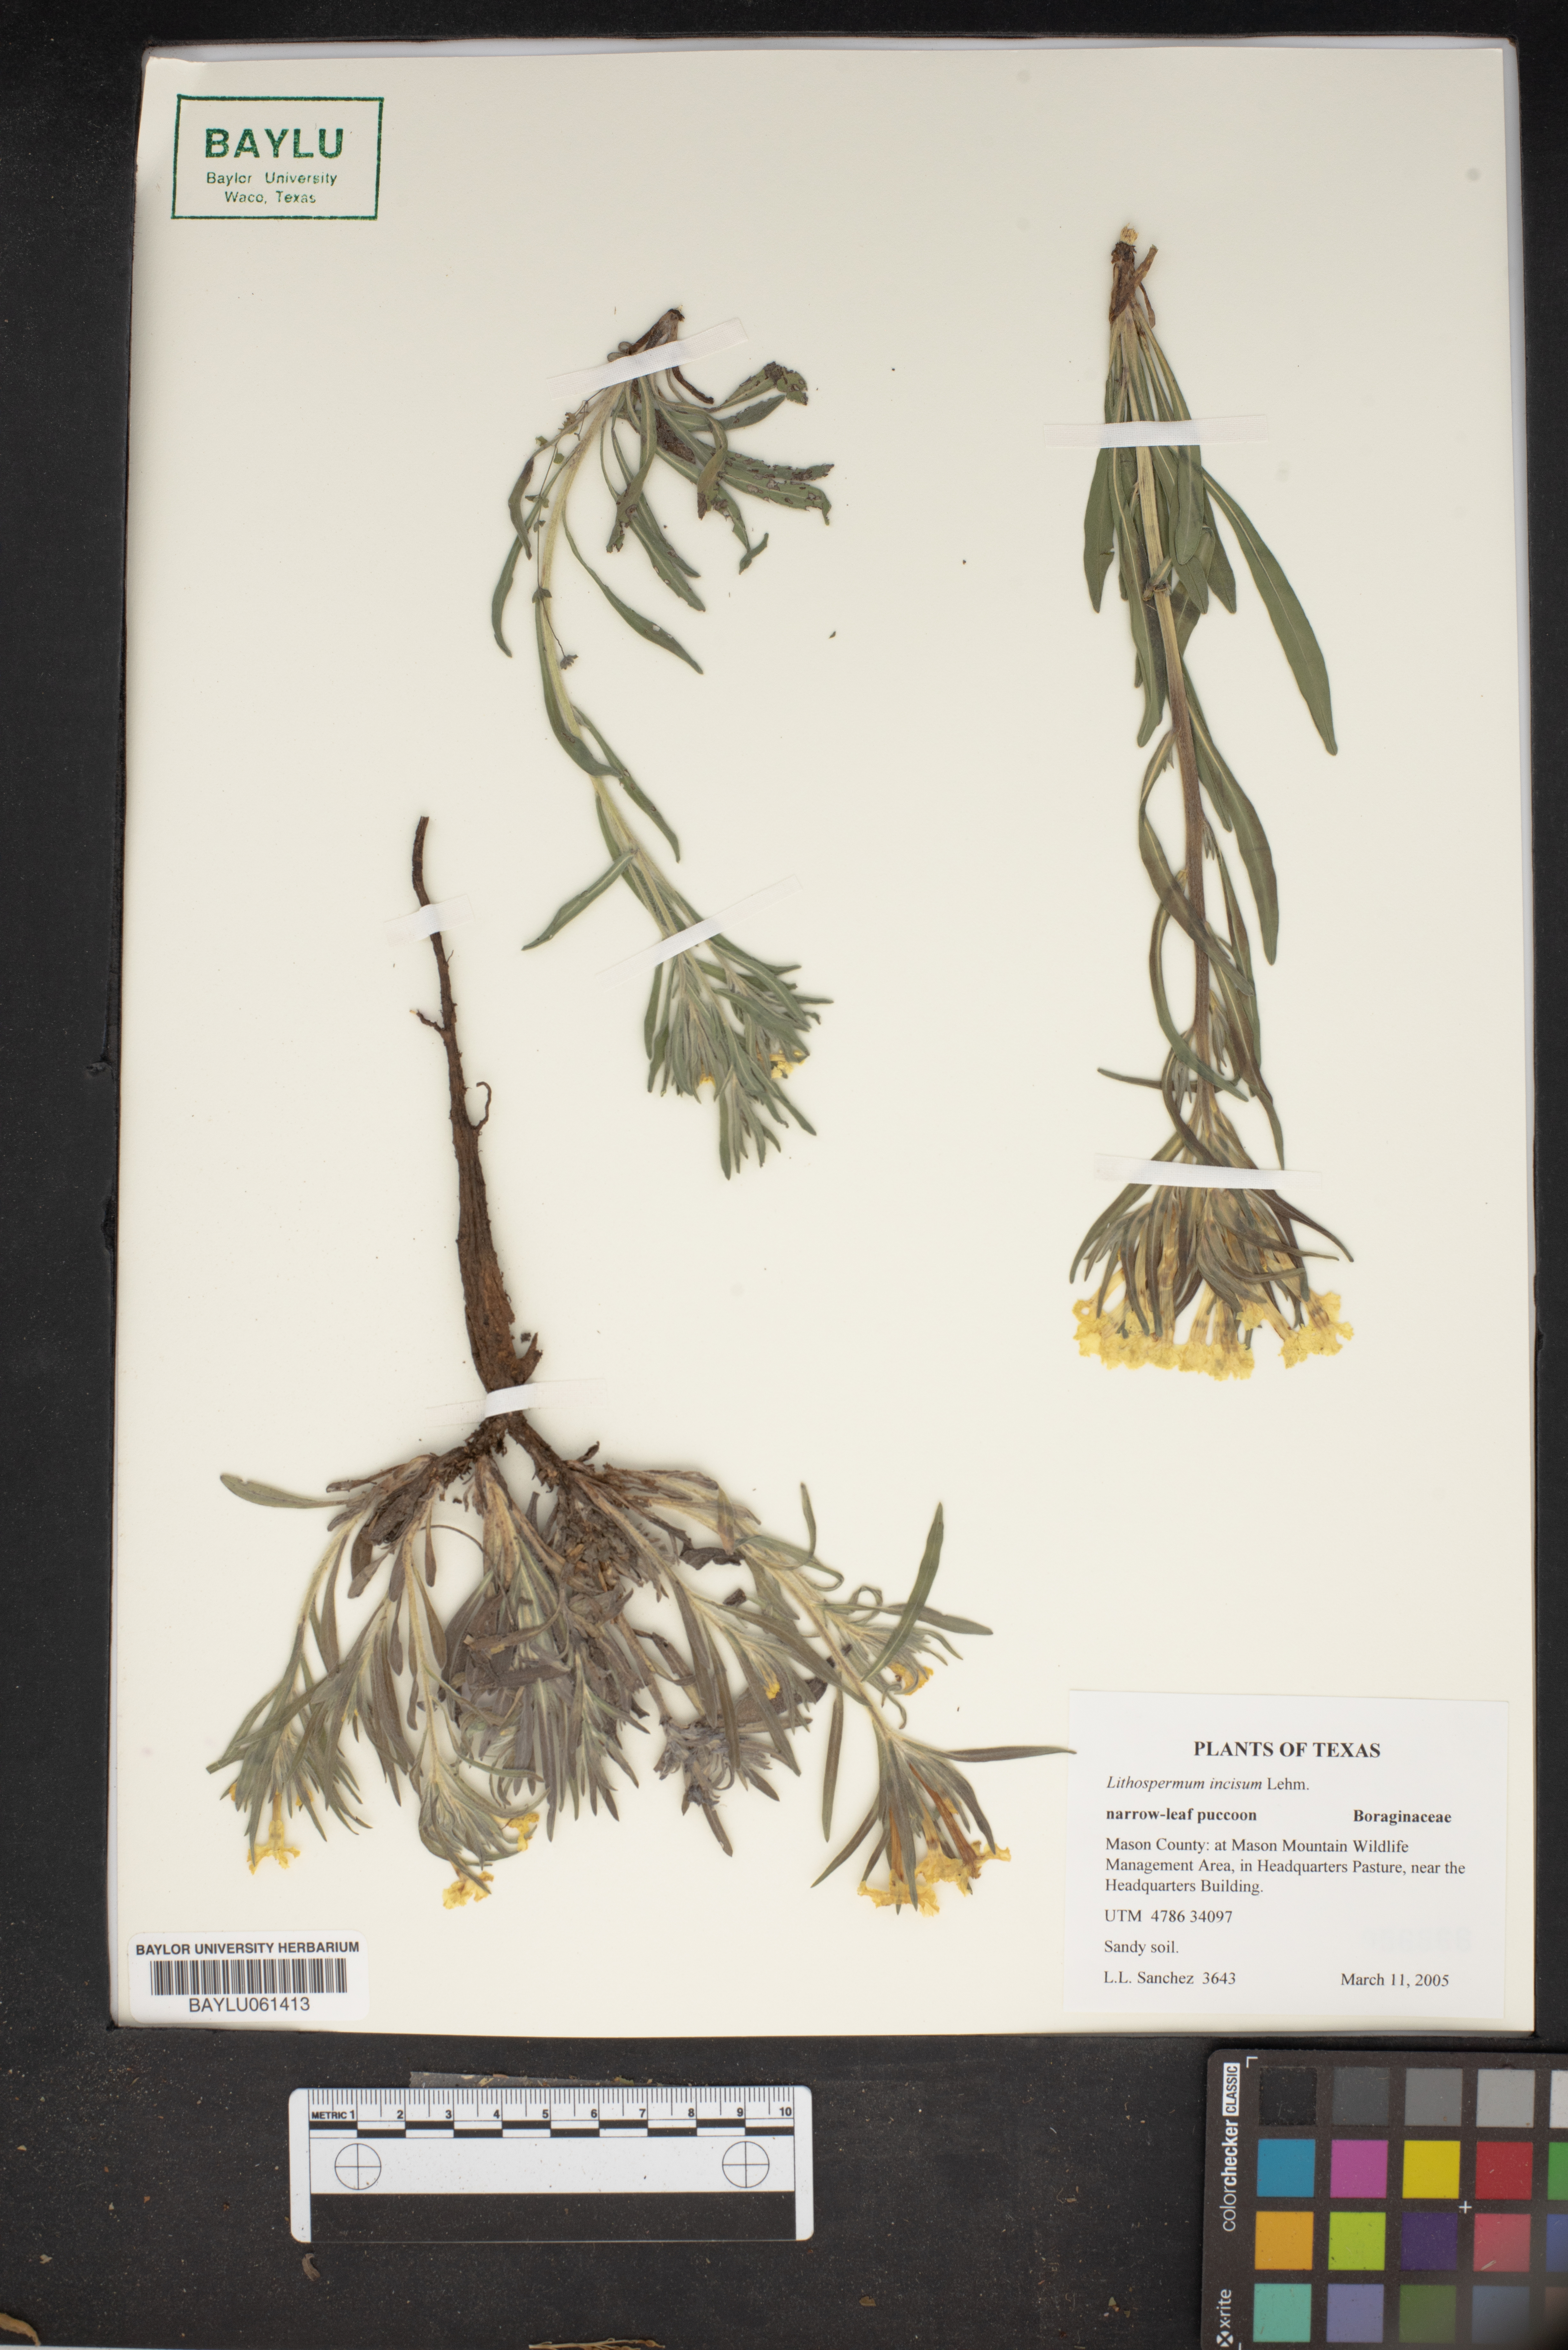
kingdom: Plantae
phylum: Tracheophyta
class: Magnoliopsida
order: Boraginales
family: Boraginaceae
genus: Lithospermum
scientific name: Lithospermum incisum
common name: Fringed gromwell
